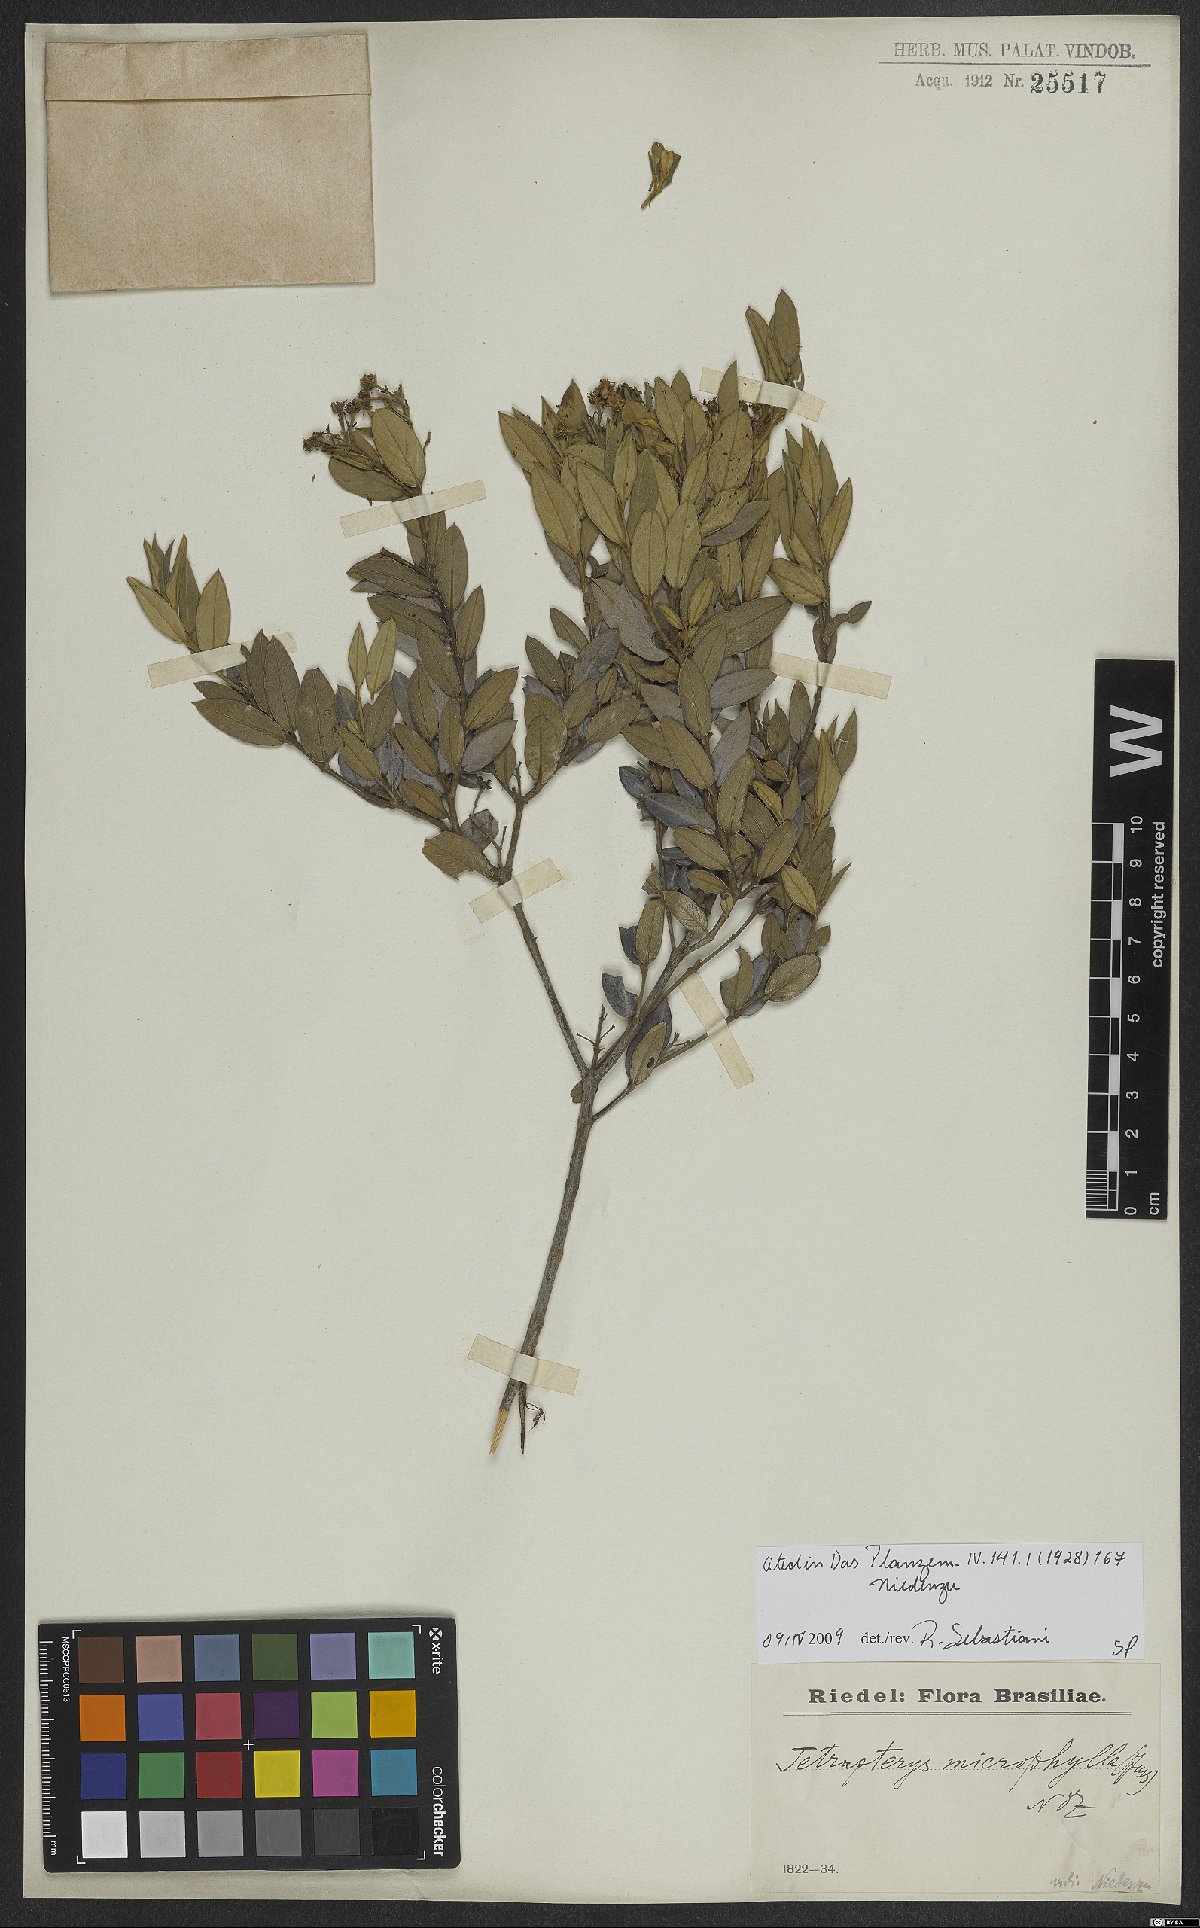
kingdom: Plantae
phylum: Tracheophyta
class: Magnoliopsida
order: Malpighiales
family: Malpighiaceae
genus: Glicophyllum
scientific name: Glicophyllum microphyllum
